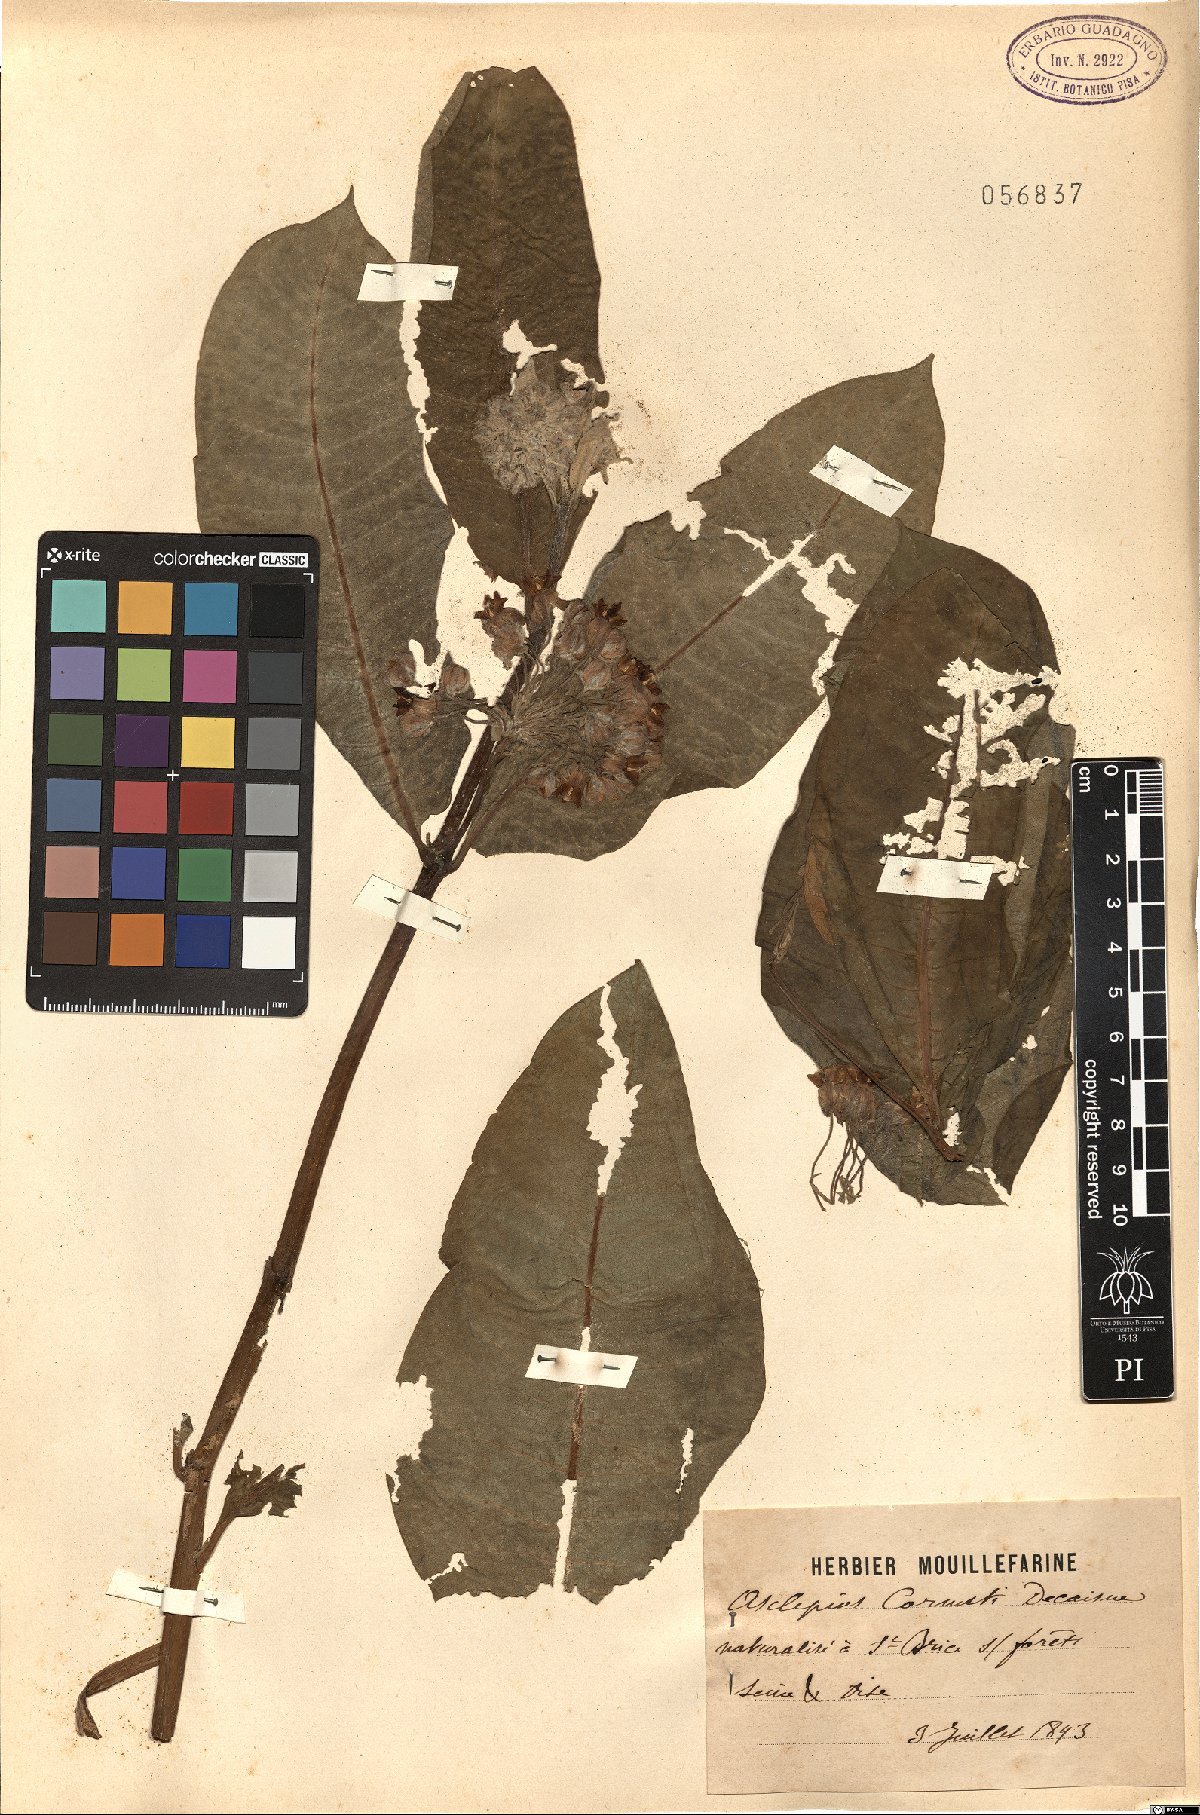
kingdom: Plantae
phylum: Tracheophyta
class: Magnoliopsida
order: Gentianales
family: Apocynaceae
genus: Gomphocarpus
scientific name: Gomphocarpus fruticosus
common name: Milkweed
